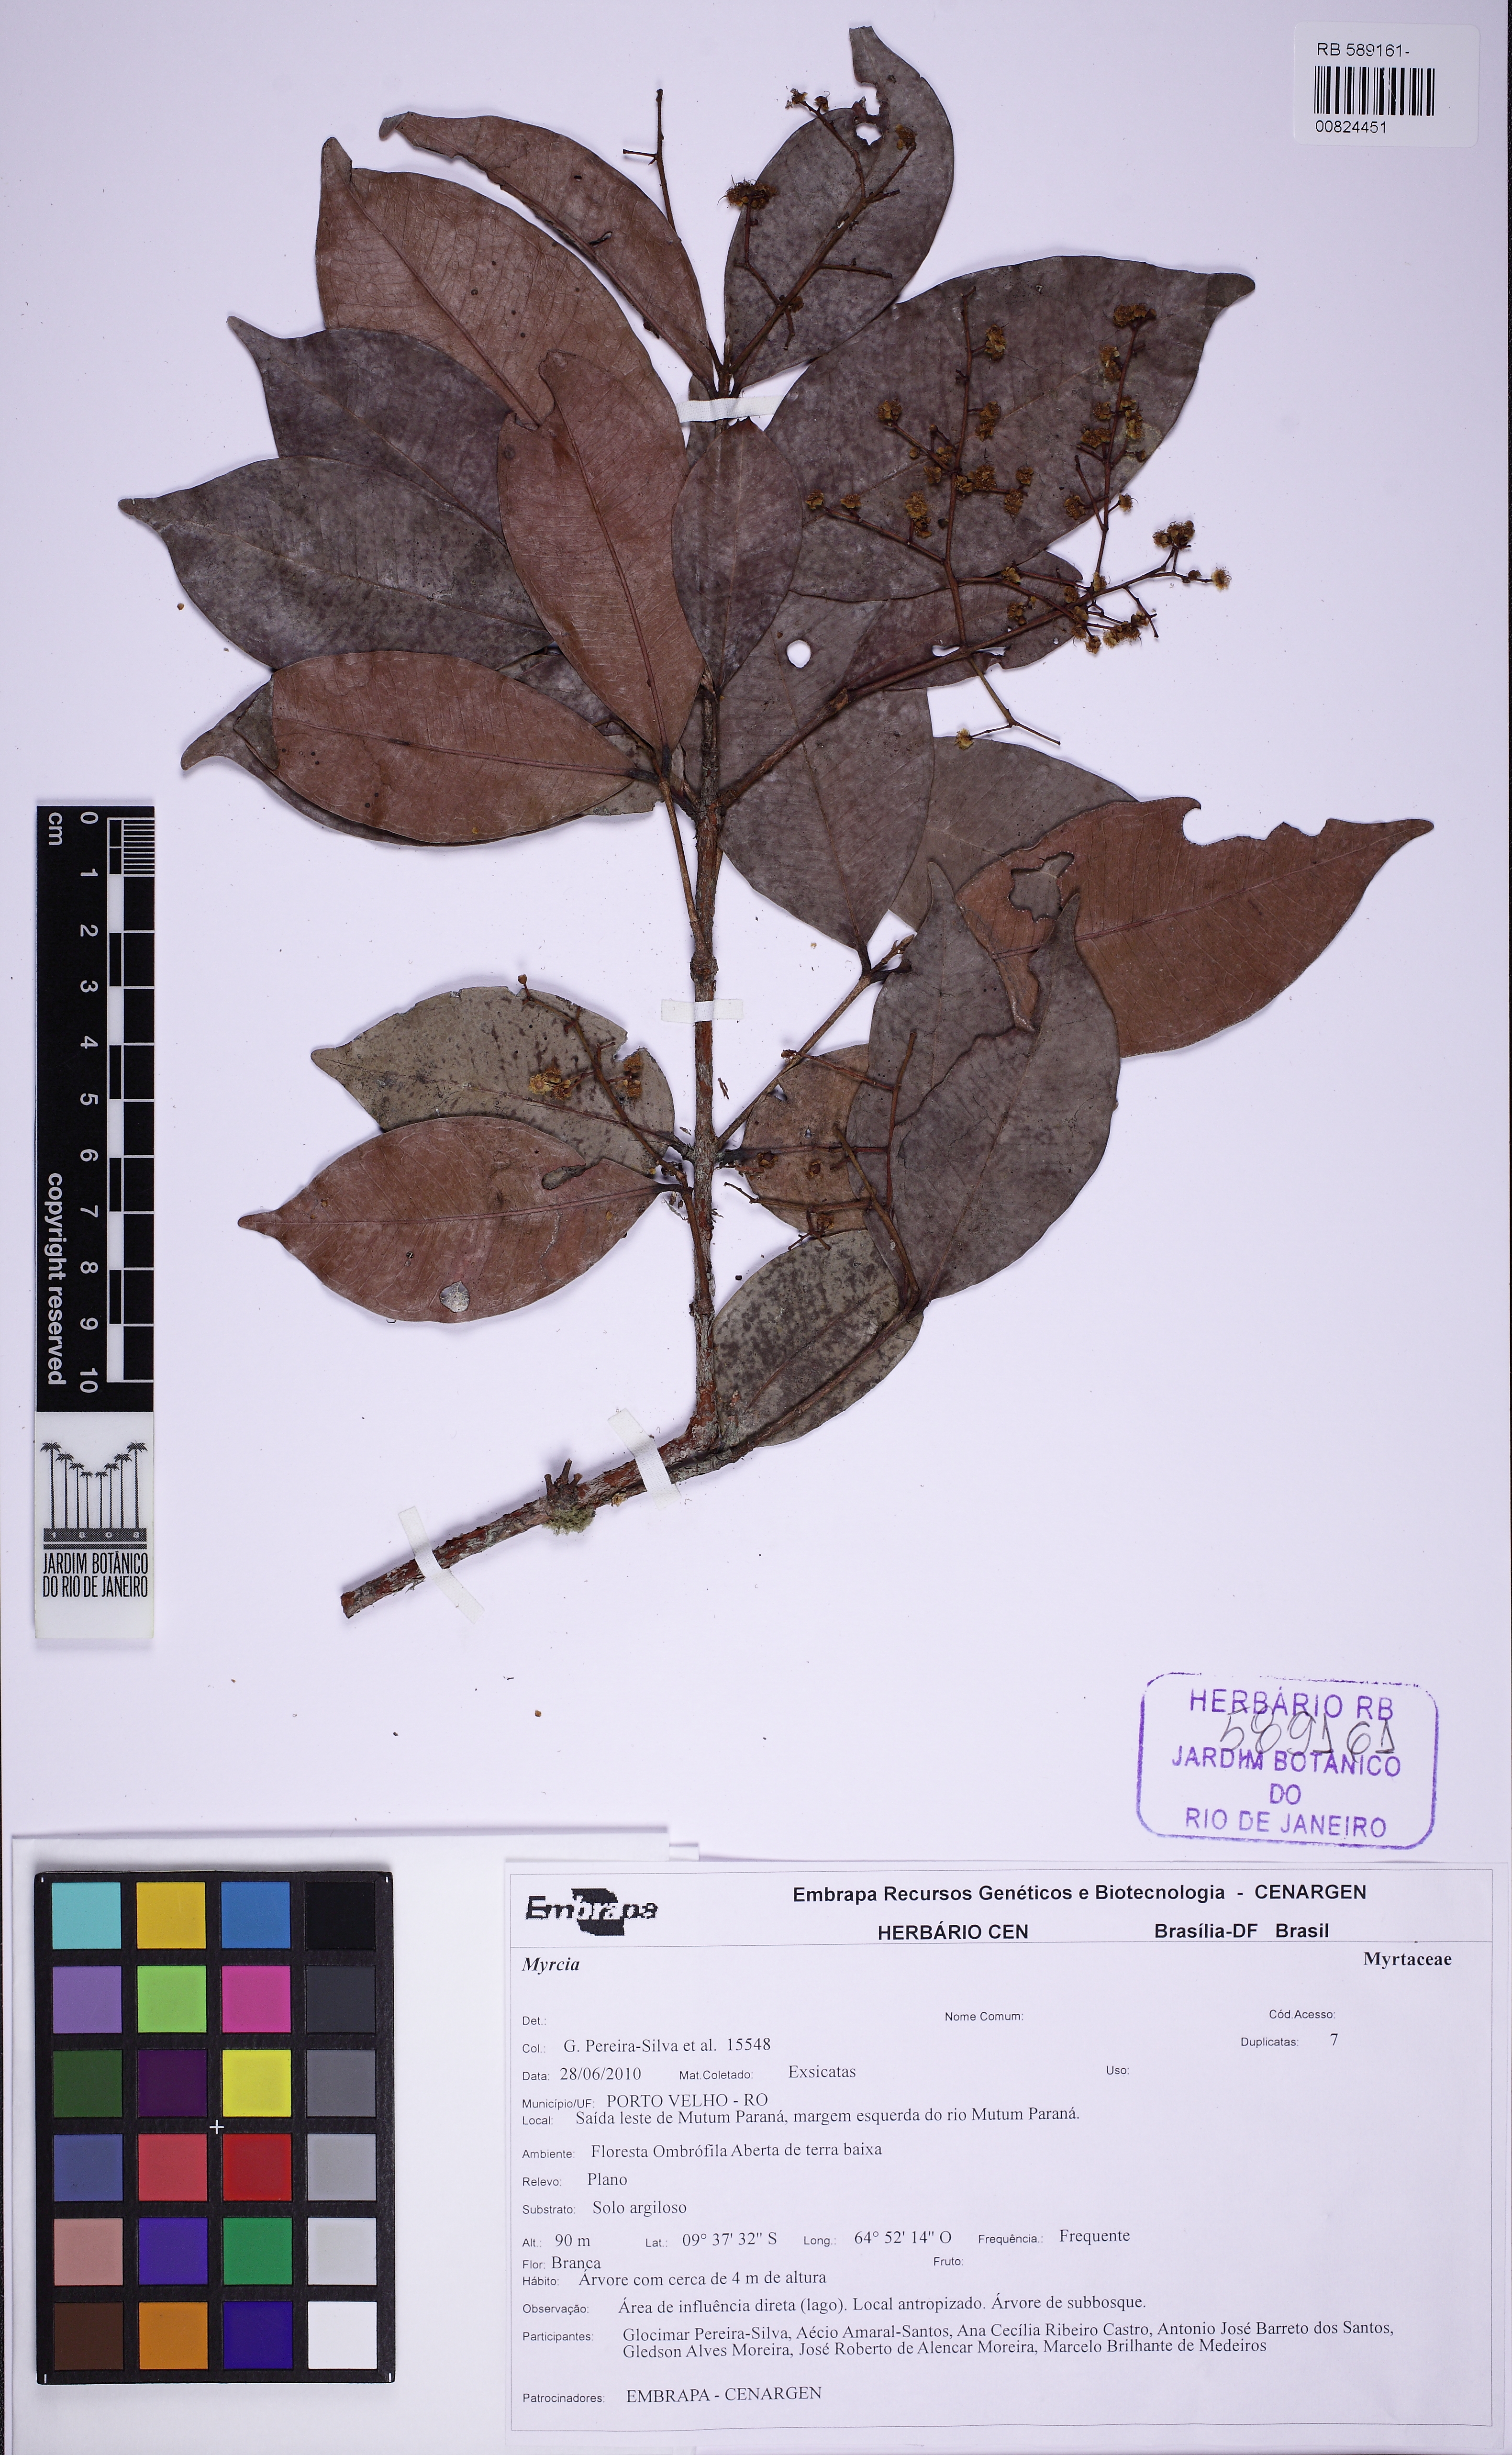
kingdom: Plantae
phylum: Tracheophyta
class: Magnoliopsida
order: Myrtales
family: Myrtaceae
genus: Myrcia
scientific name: Myrcia amazonica
